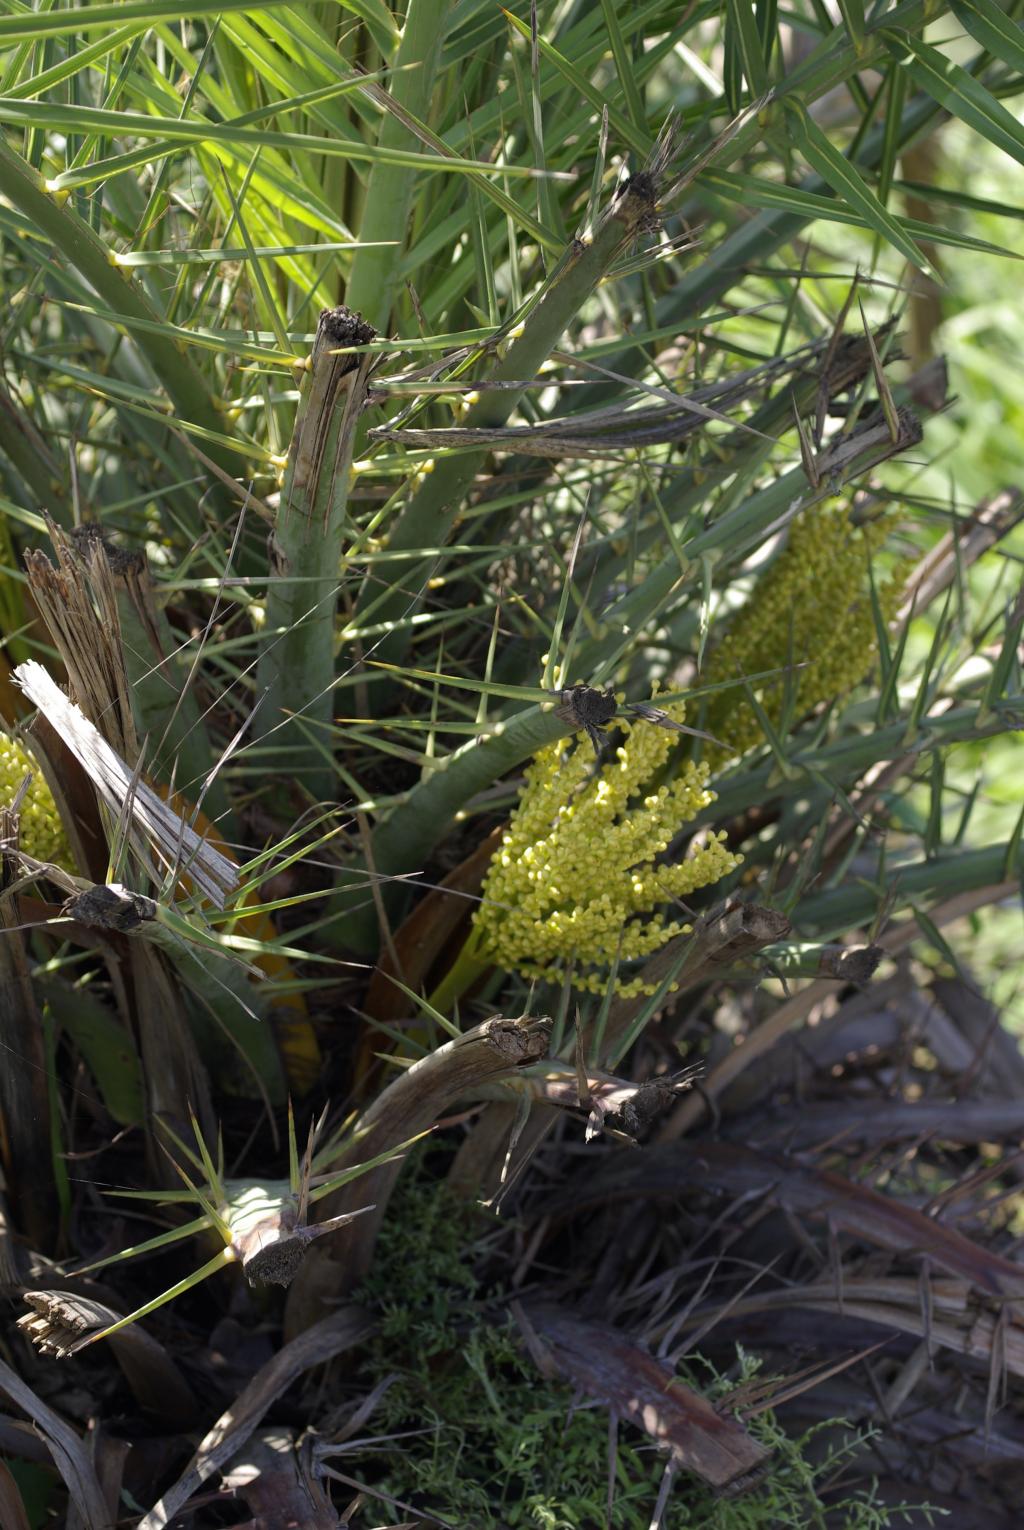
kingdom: Plantae
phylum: Tracheophyta
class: Liliopsida
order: Arecales
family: Arecaceae
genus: Phoenix
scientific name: Phoenix loureiroi
